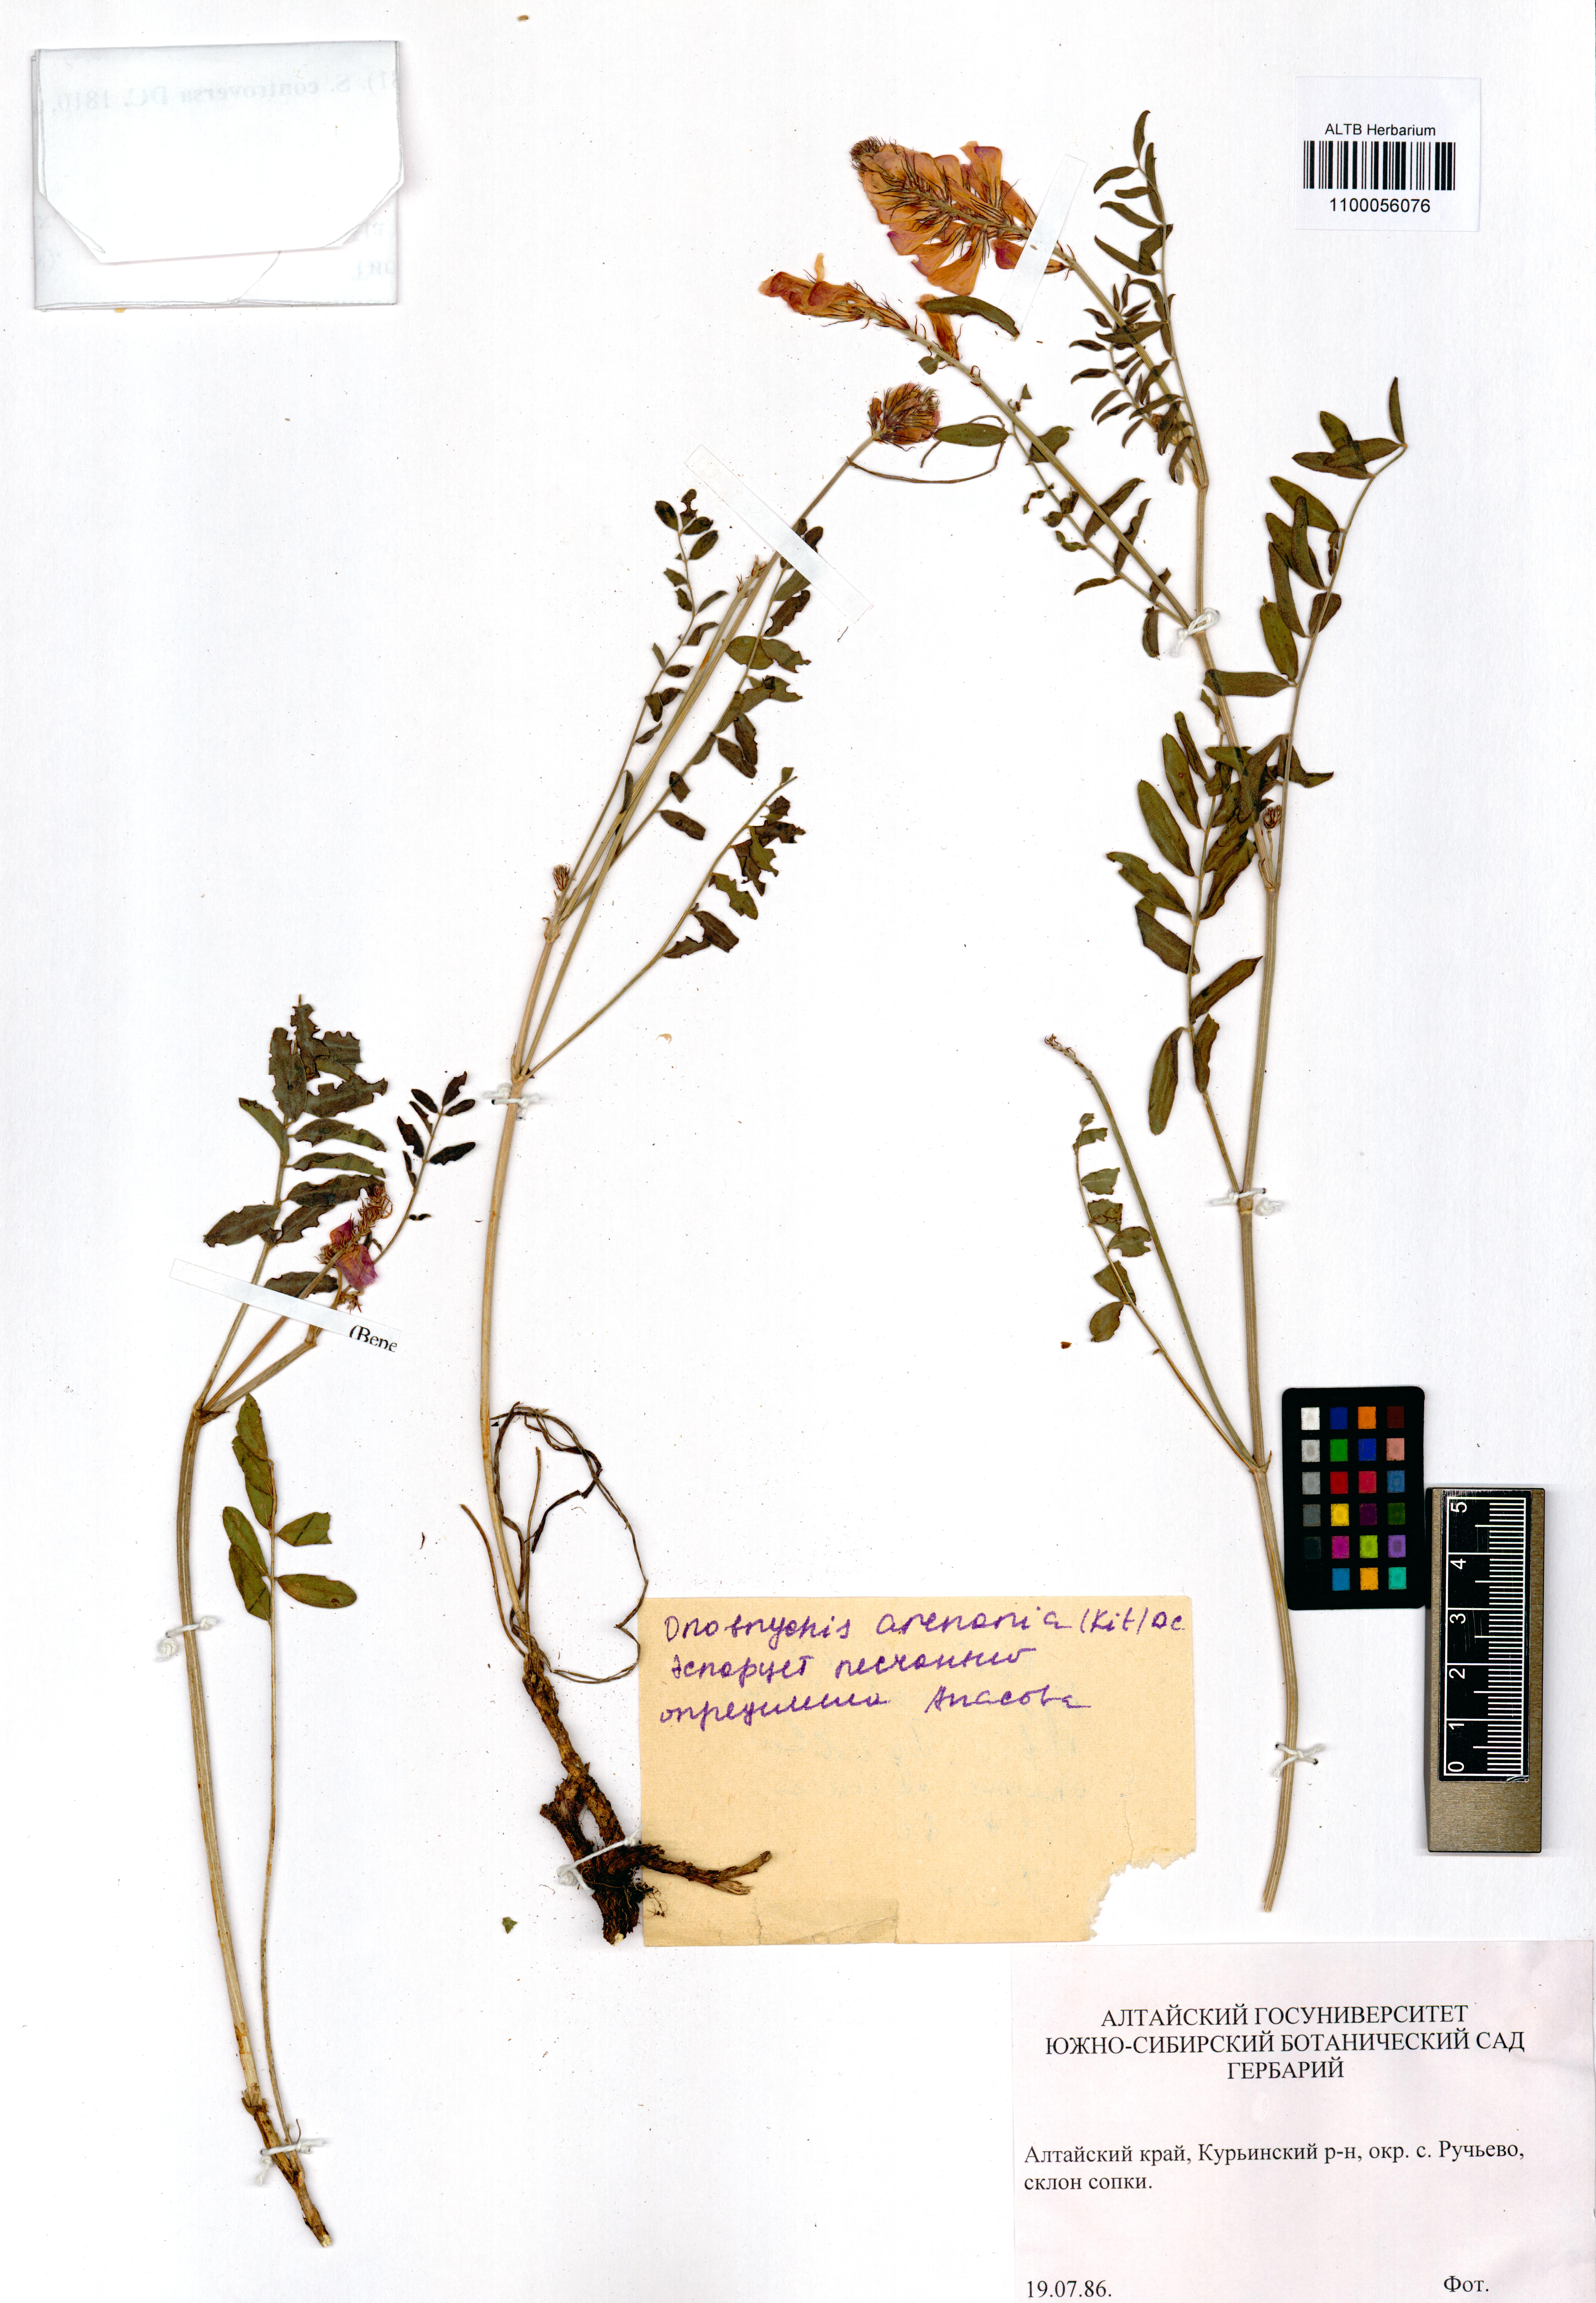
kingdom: Plantae
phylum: Tracheophyta
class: Magnoliopsida
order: Fabales
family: Fabaceae
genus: Onobrychis
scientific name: Onobrychis arenaria
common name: Sand esparcet
